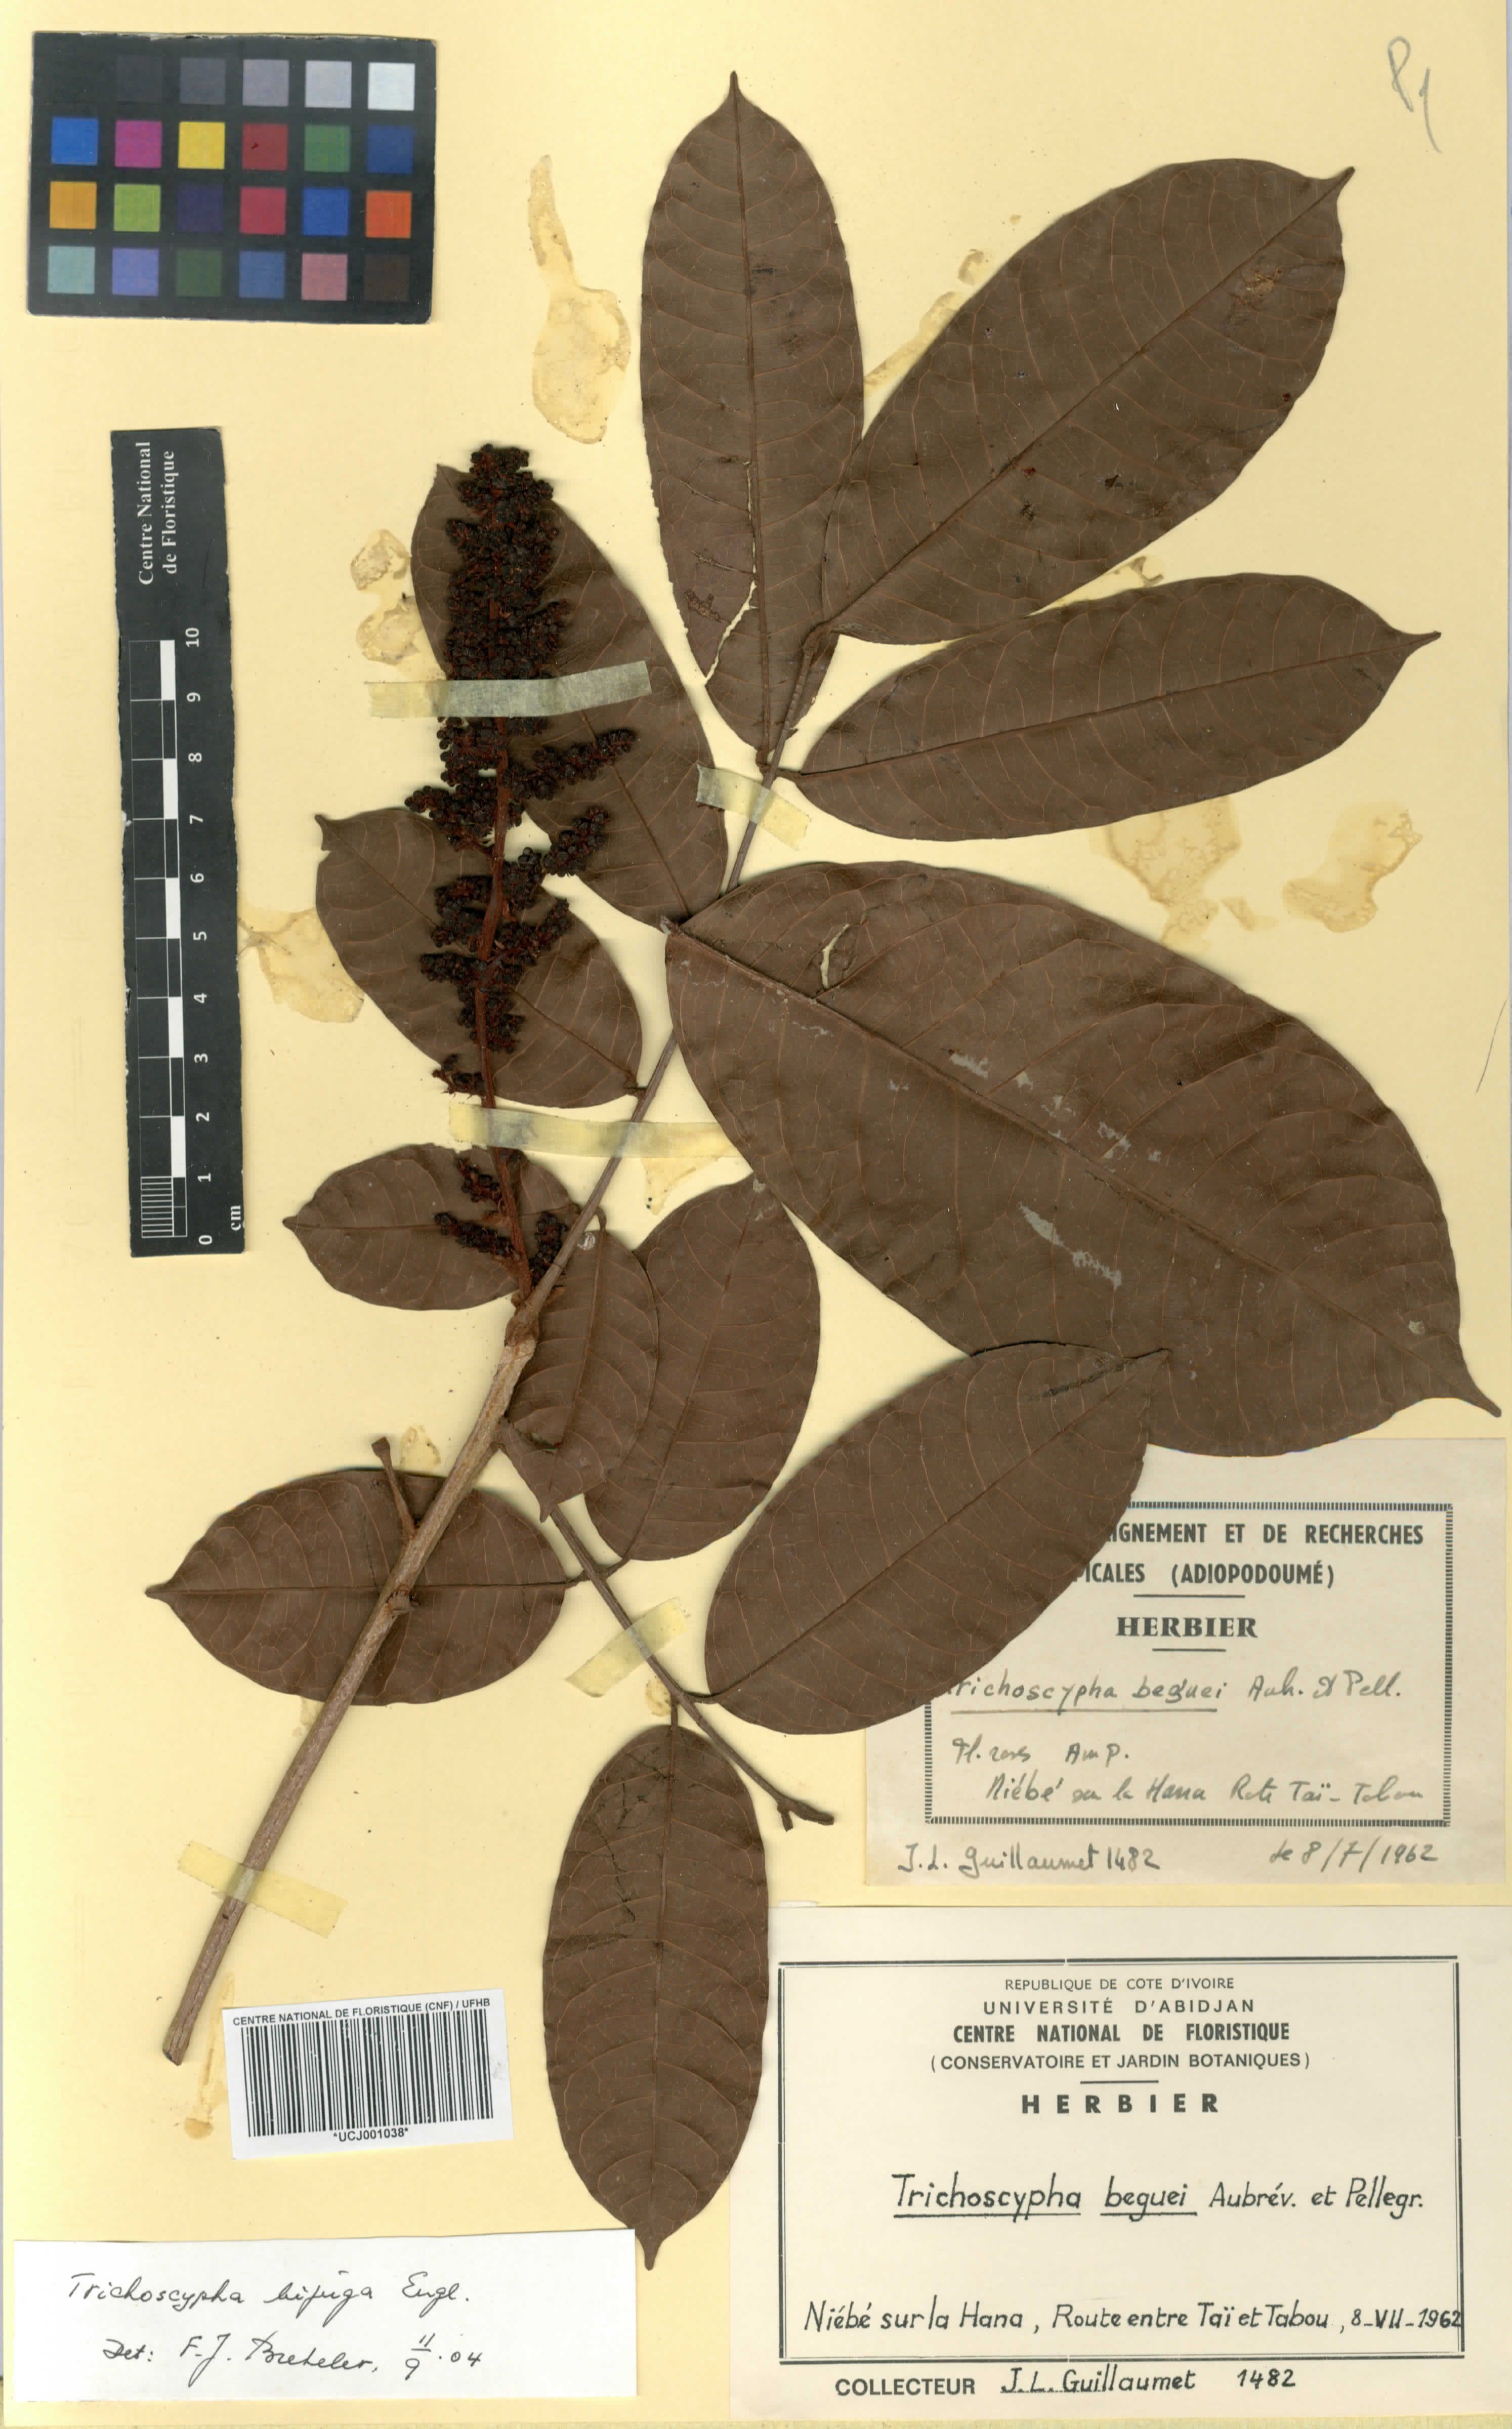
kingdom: Plantae
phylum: Tracheophyta
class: Magnoliopsida
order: Sapindales
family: Anacardiaceae
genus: Trichoscypha
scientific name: Trichoscypha bijuga
